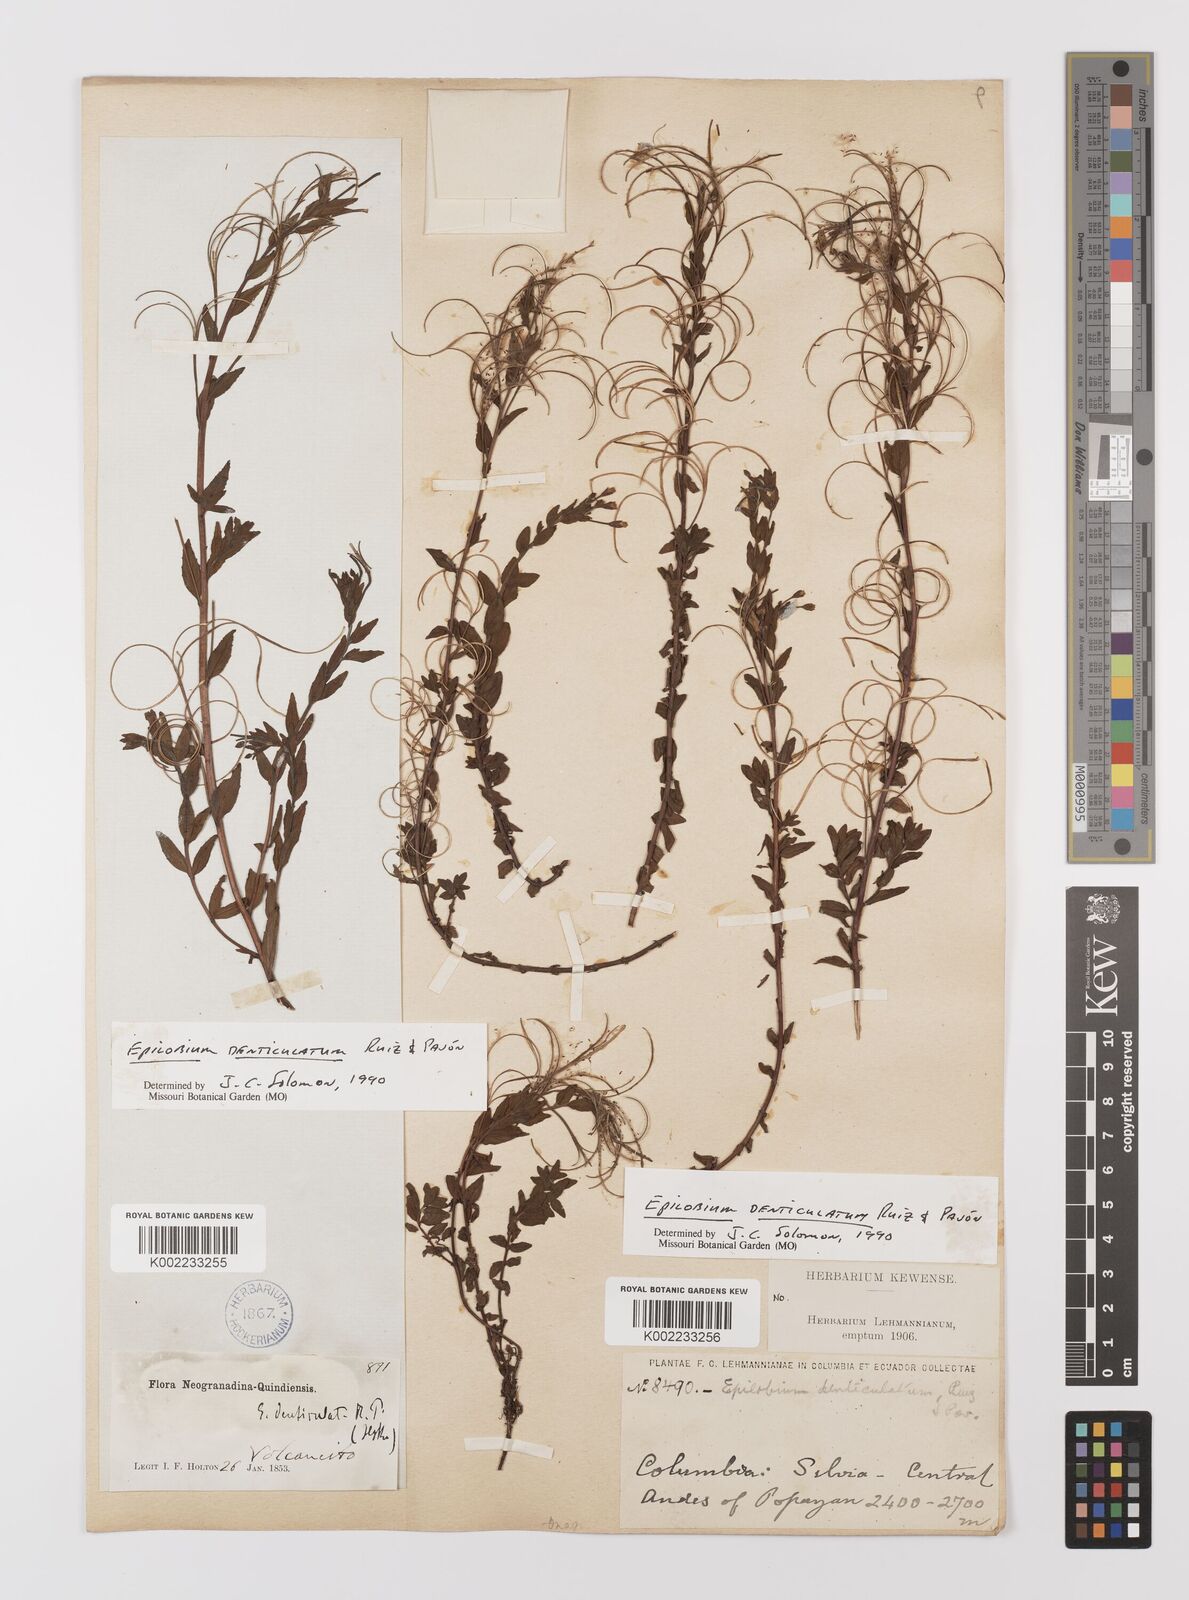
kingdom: Plantae
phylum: Tracheophyta
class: Magnoliopsida
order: Myrtales
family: Onagraceae
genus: Epilobium
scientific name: Epilobium denticulatum
